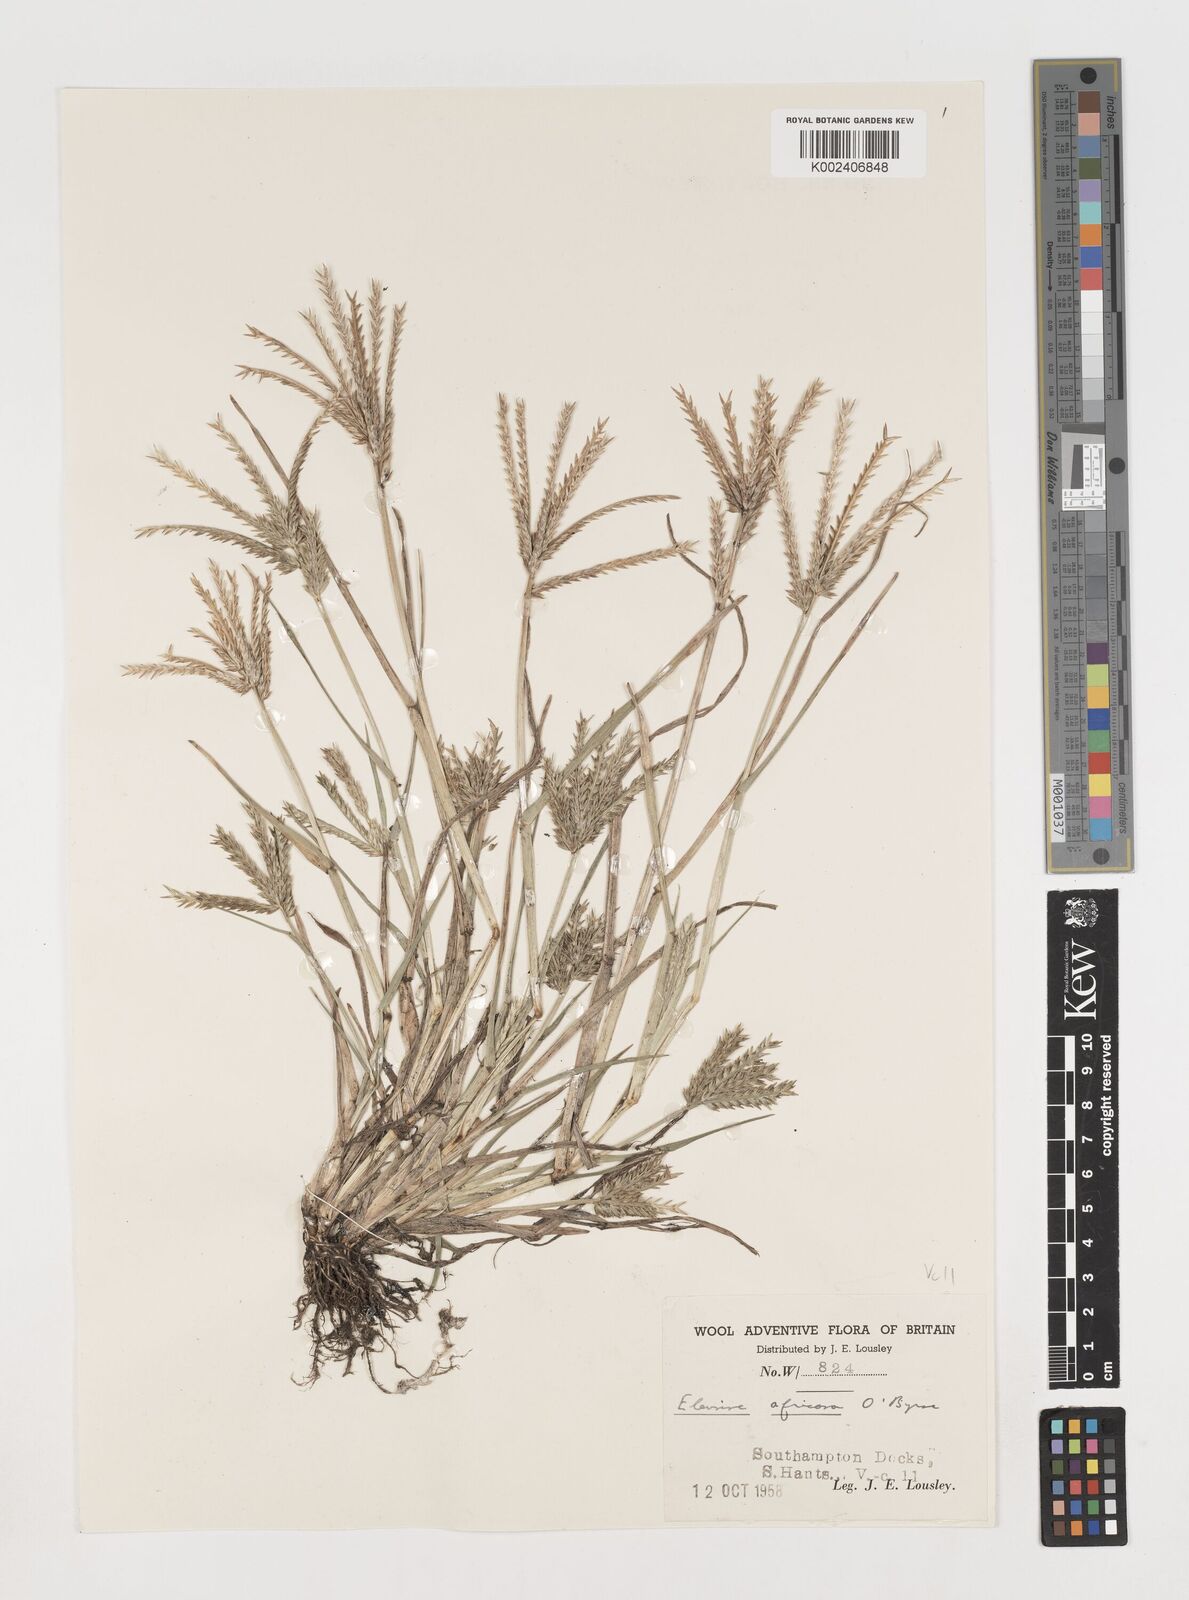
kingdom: Plantae
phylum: Tracheophyta
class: Liliopsida
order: Poales
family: Poaceae
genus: Eleusine
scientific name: Eleusine africana
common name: Wild african finger millet
